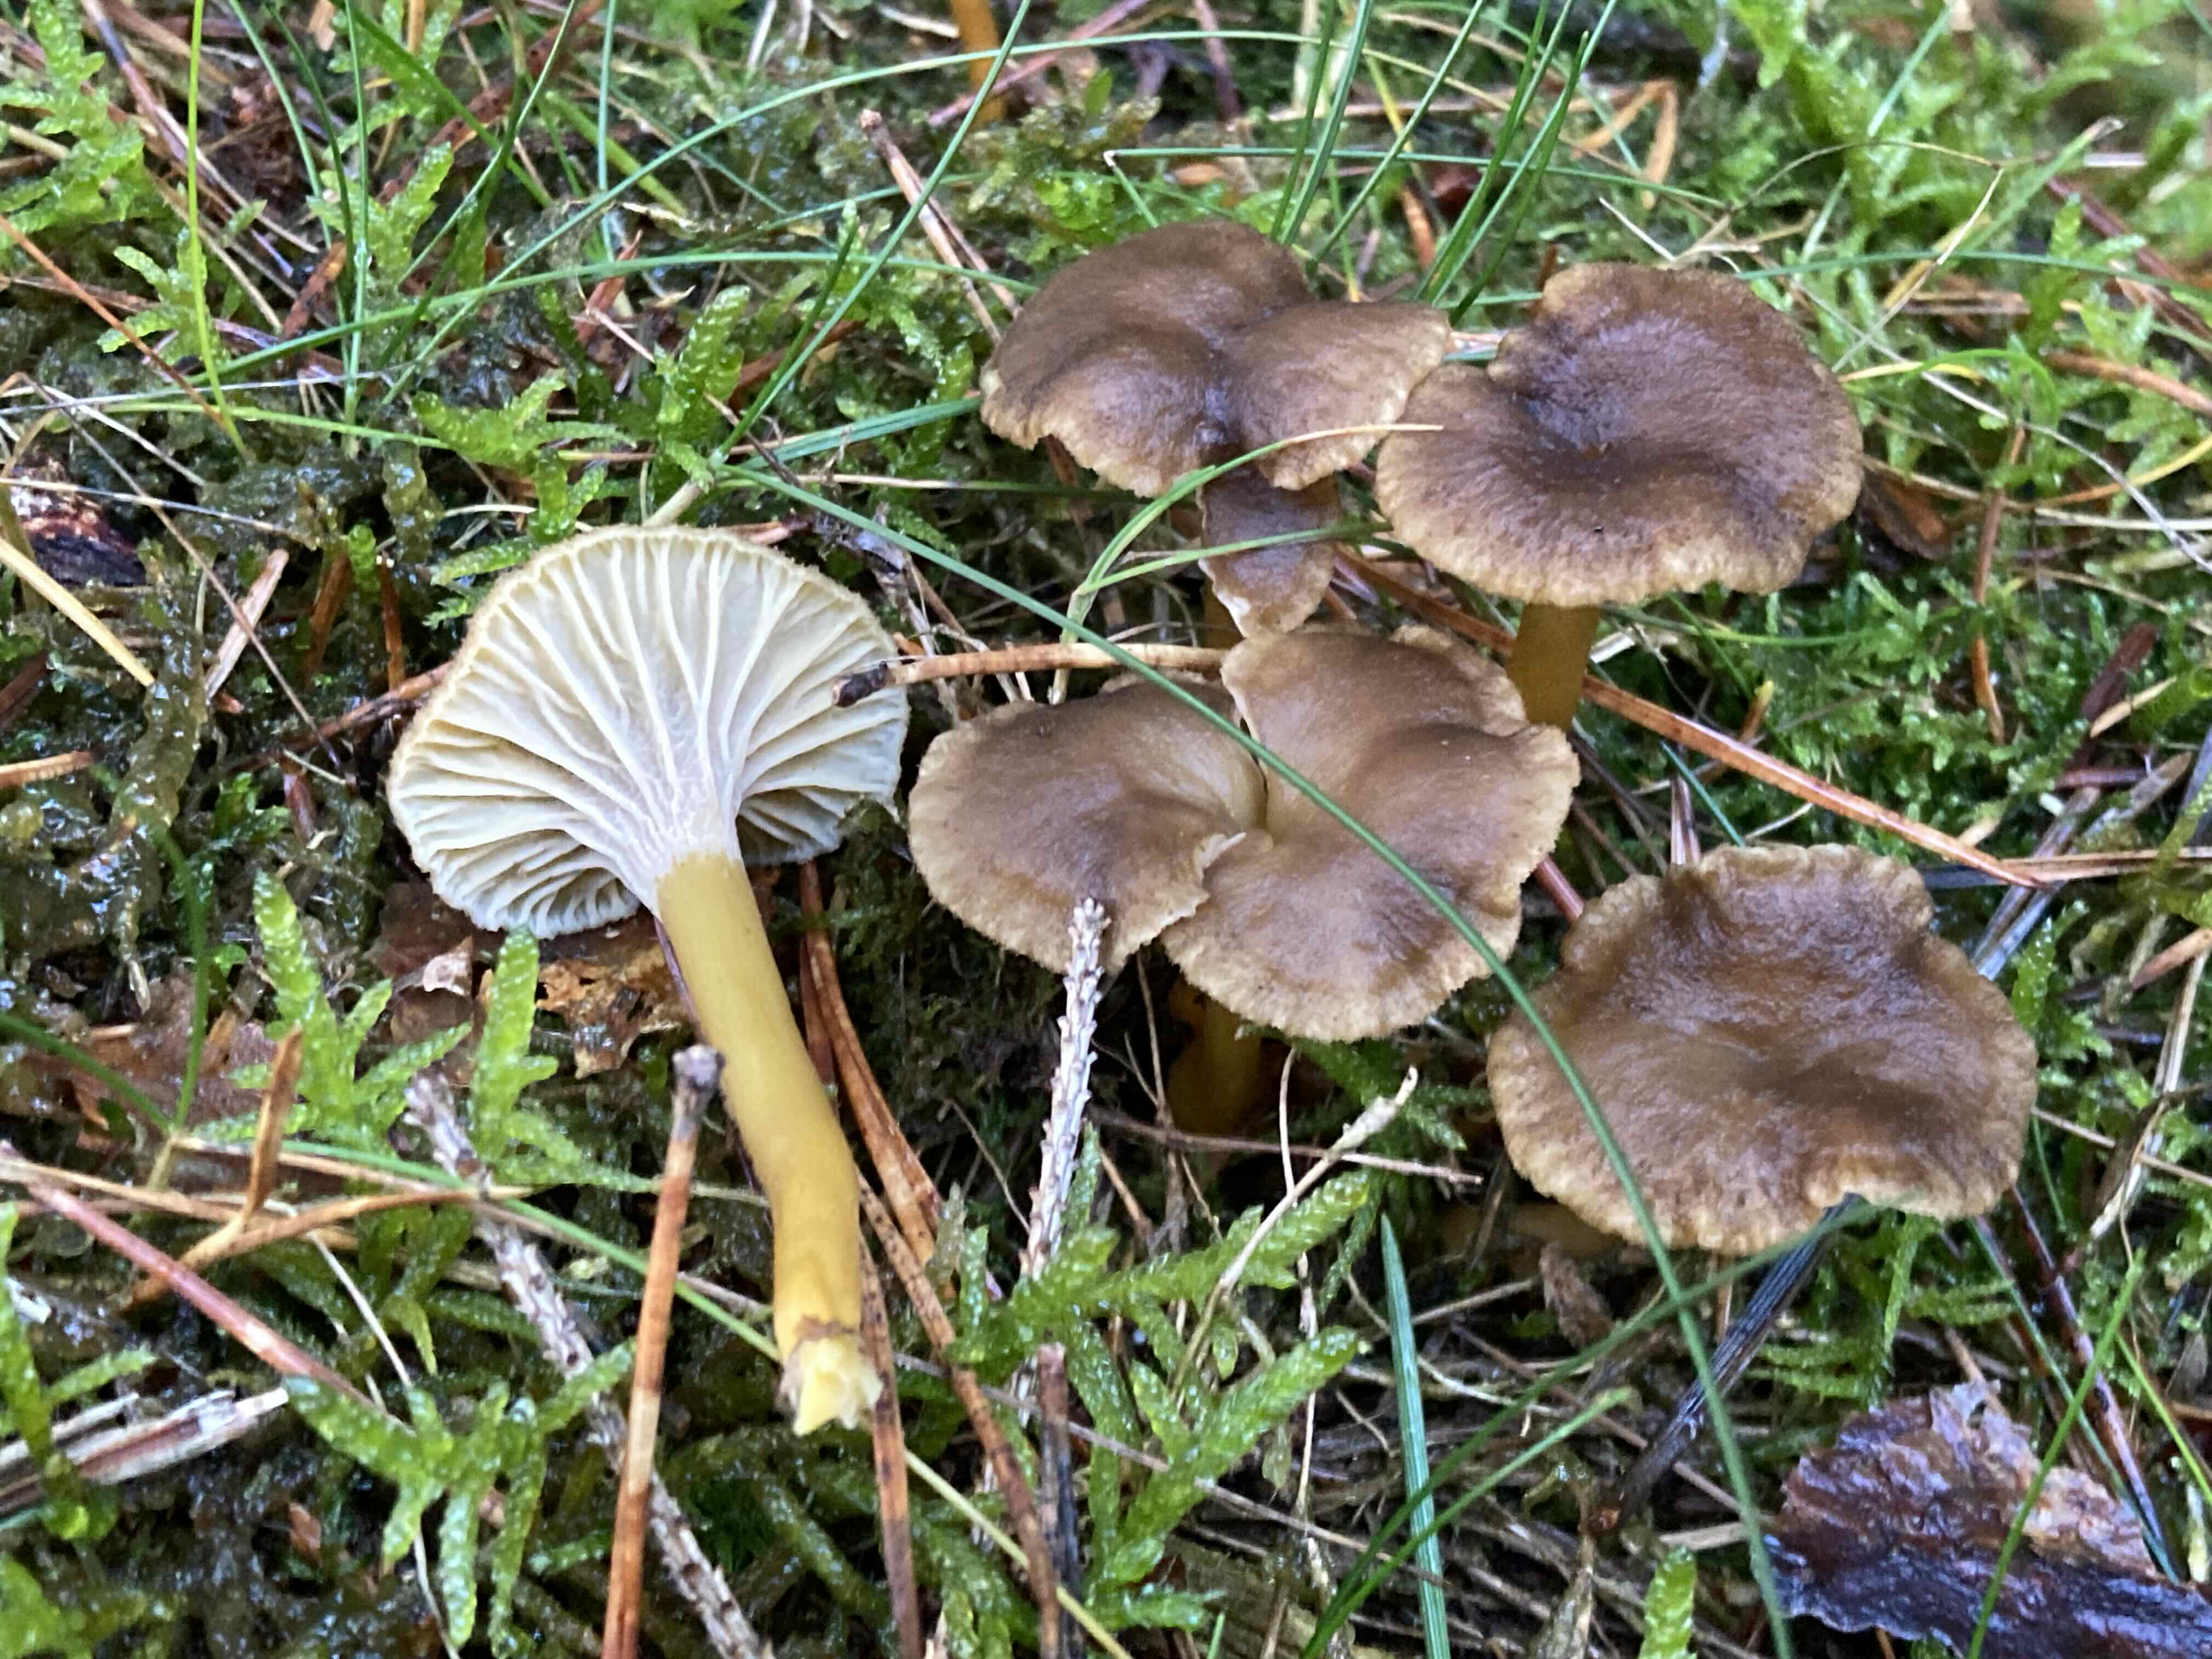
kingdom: Fungi
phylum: Basidiomycota
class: Agaricomycetes
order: Cantharellales
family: Hydnaceae
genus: Craterellus
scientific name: Craterellus tubaeformis
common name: tragt-kantarel
